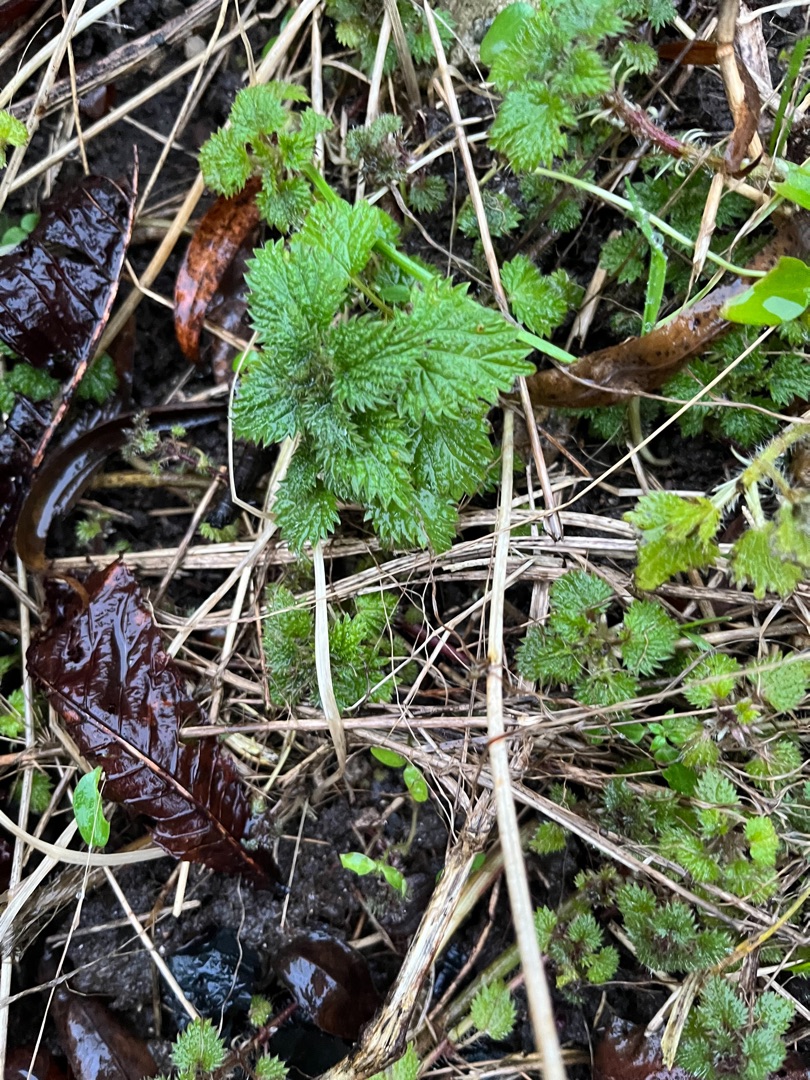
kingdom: Plantae
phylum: Tracheophyta
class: Magnoliopsida
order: Rosales
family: Urticaceae
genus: Urtica
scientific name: Urtica dioica
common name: Stor nælde
